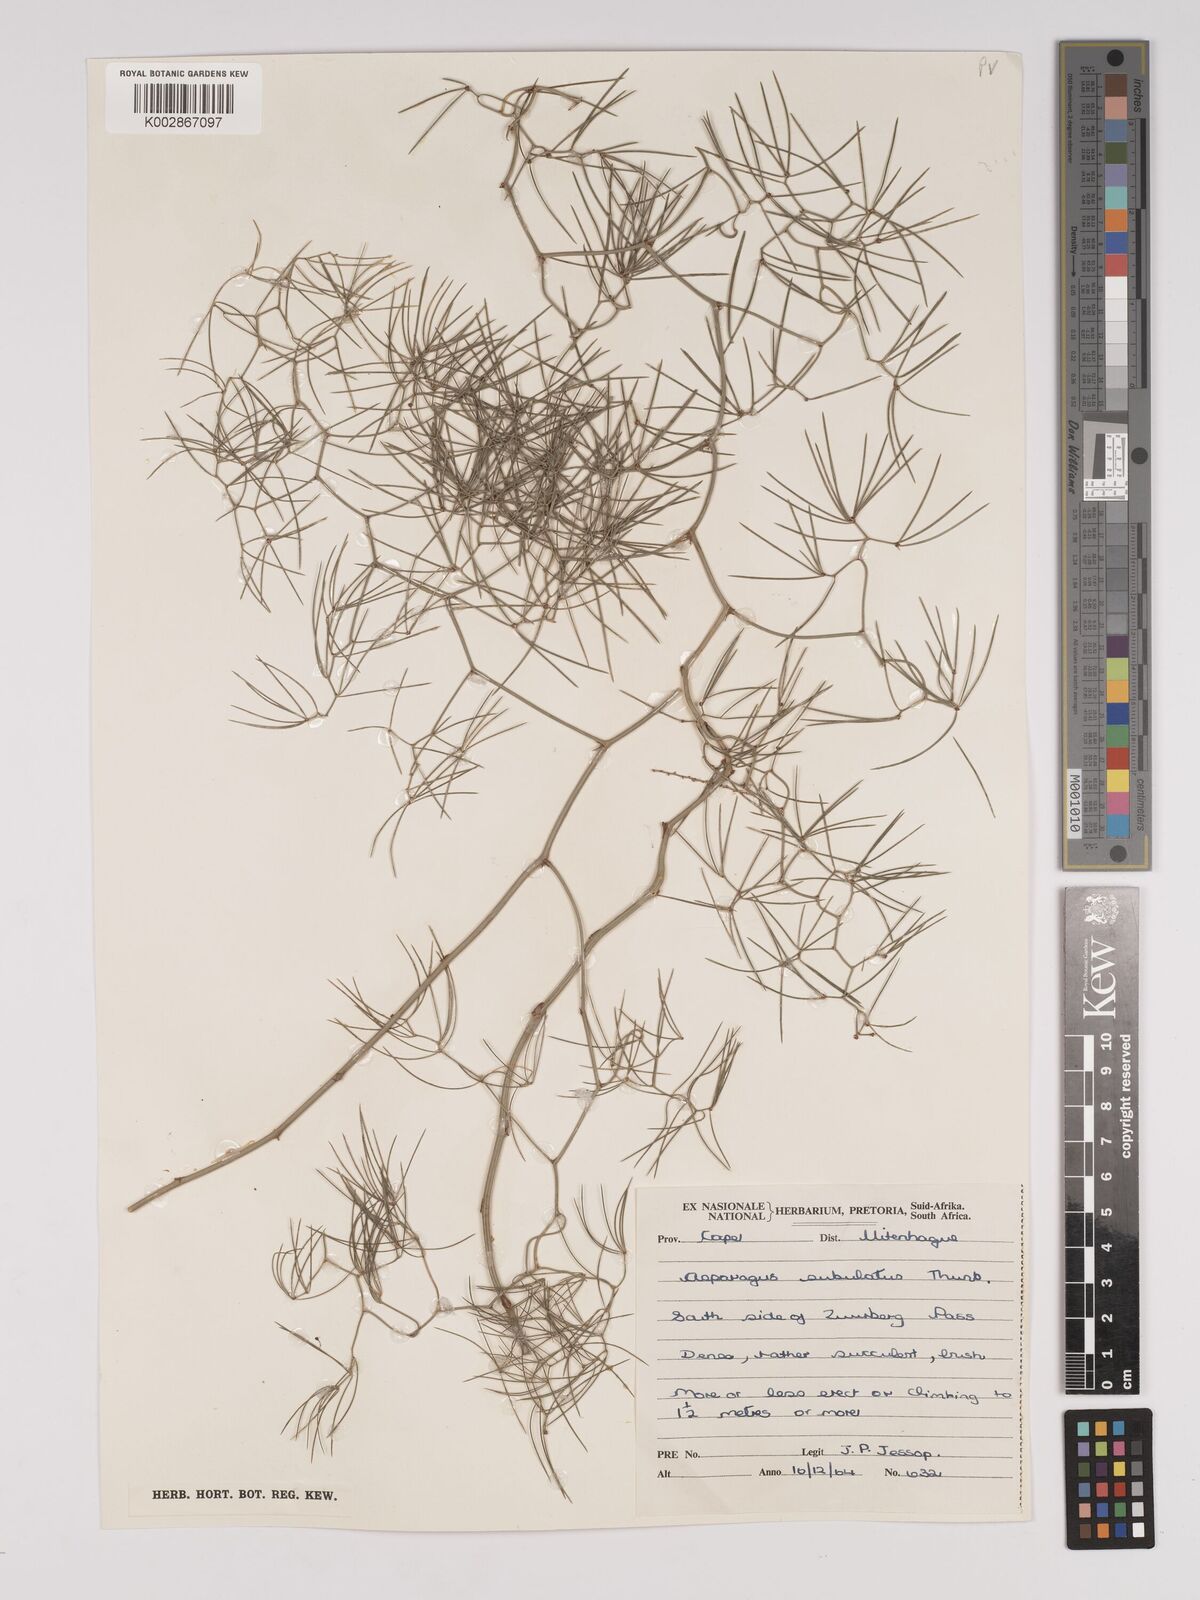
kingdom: Plantae
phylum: Tracheophyta
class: Liliopsida
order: Asparagales
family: Asparagaceae
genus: Asparagus
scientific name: Asparagus subulatus
